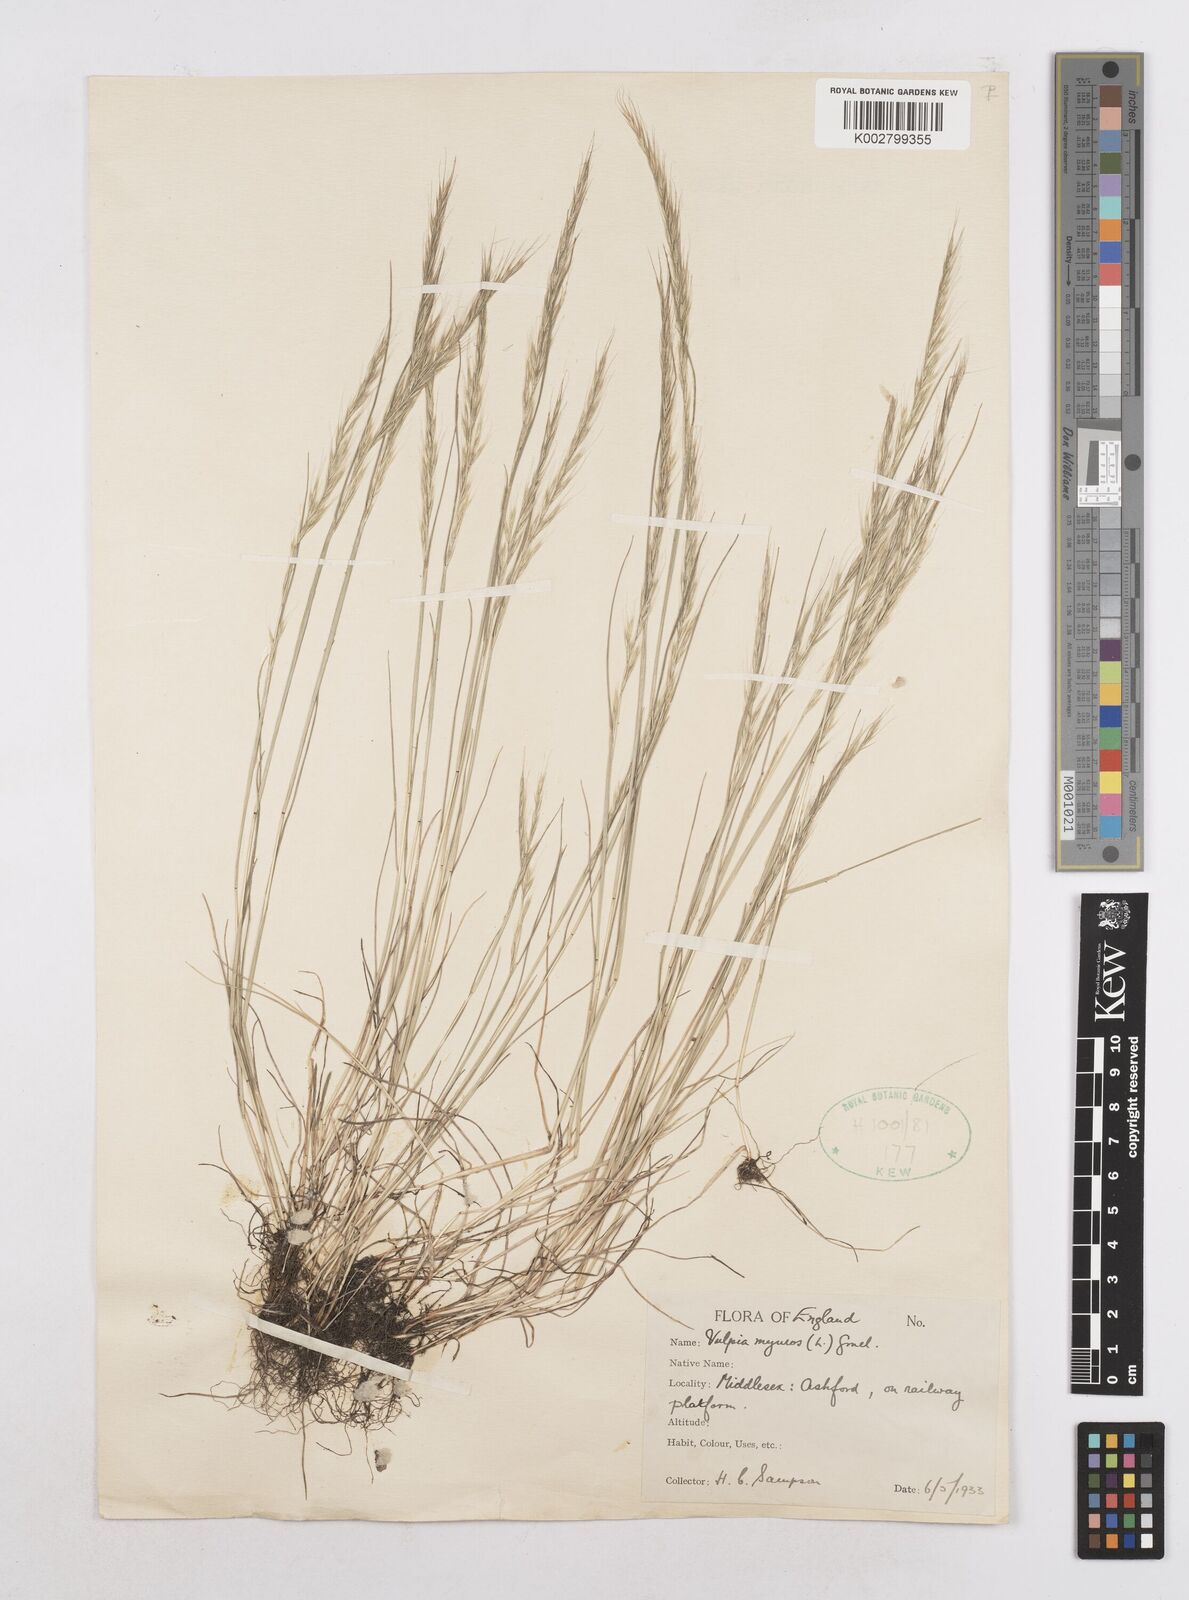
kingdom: Plantae
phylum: Tracheophyta
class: Liliopsida
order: Poales
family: Poaceae
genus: Festuca
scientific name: Festuca myuros
